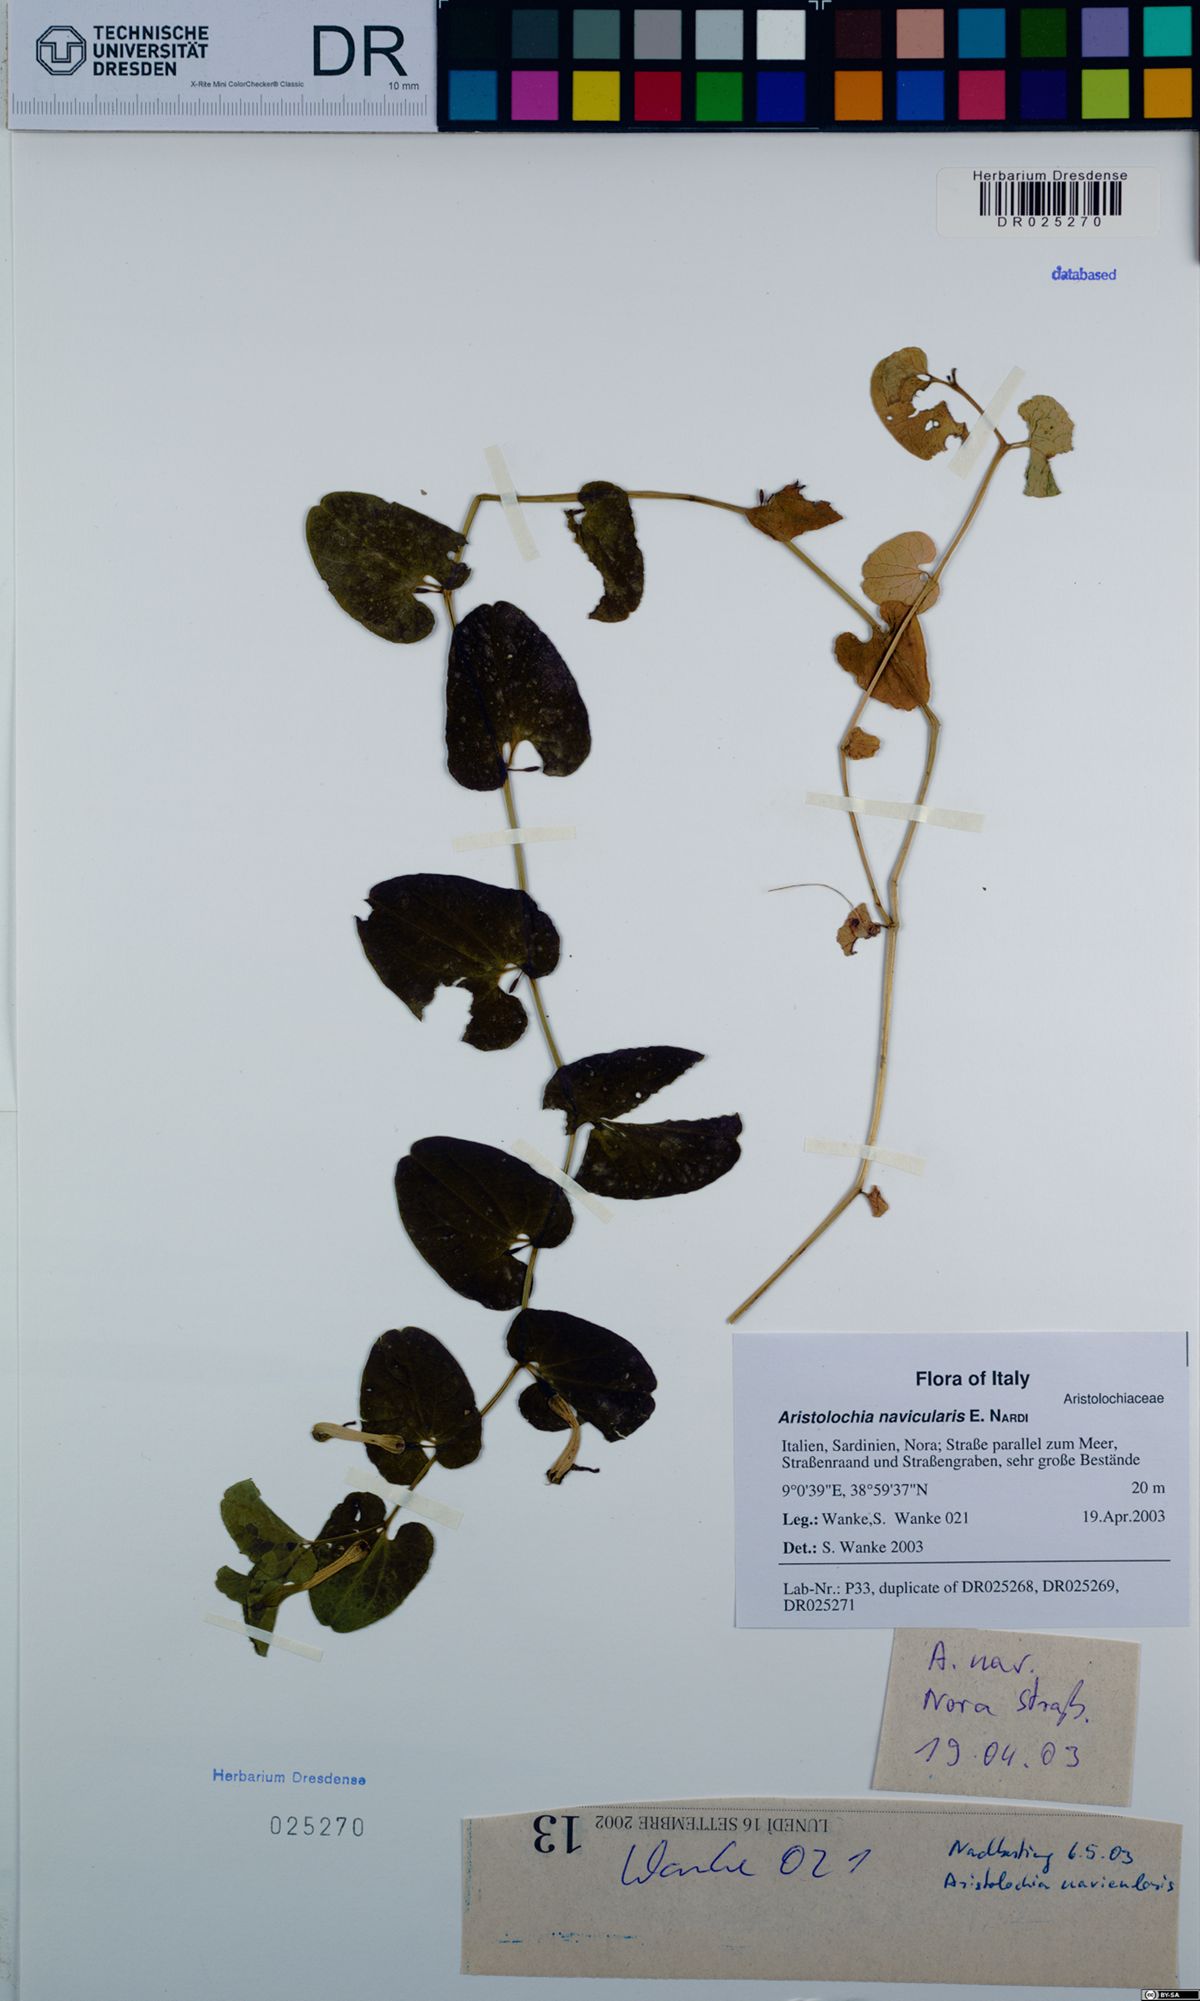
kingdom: Plantae
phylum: Tracheophyta
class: Magnoliopsida
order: Piperales
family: Aristolochiaceae
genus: Aristolochia
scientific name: Aristolochia navicularis
